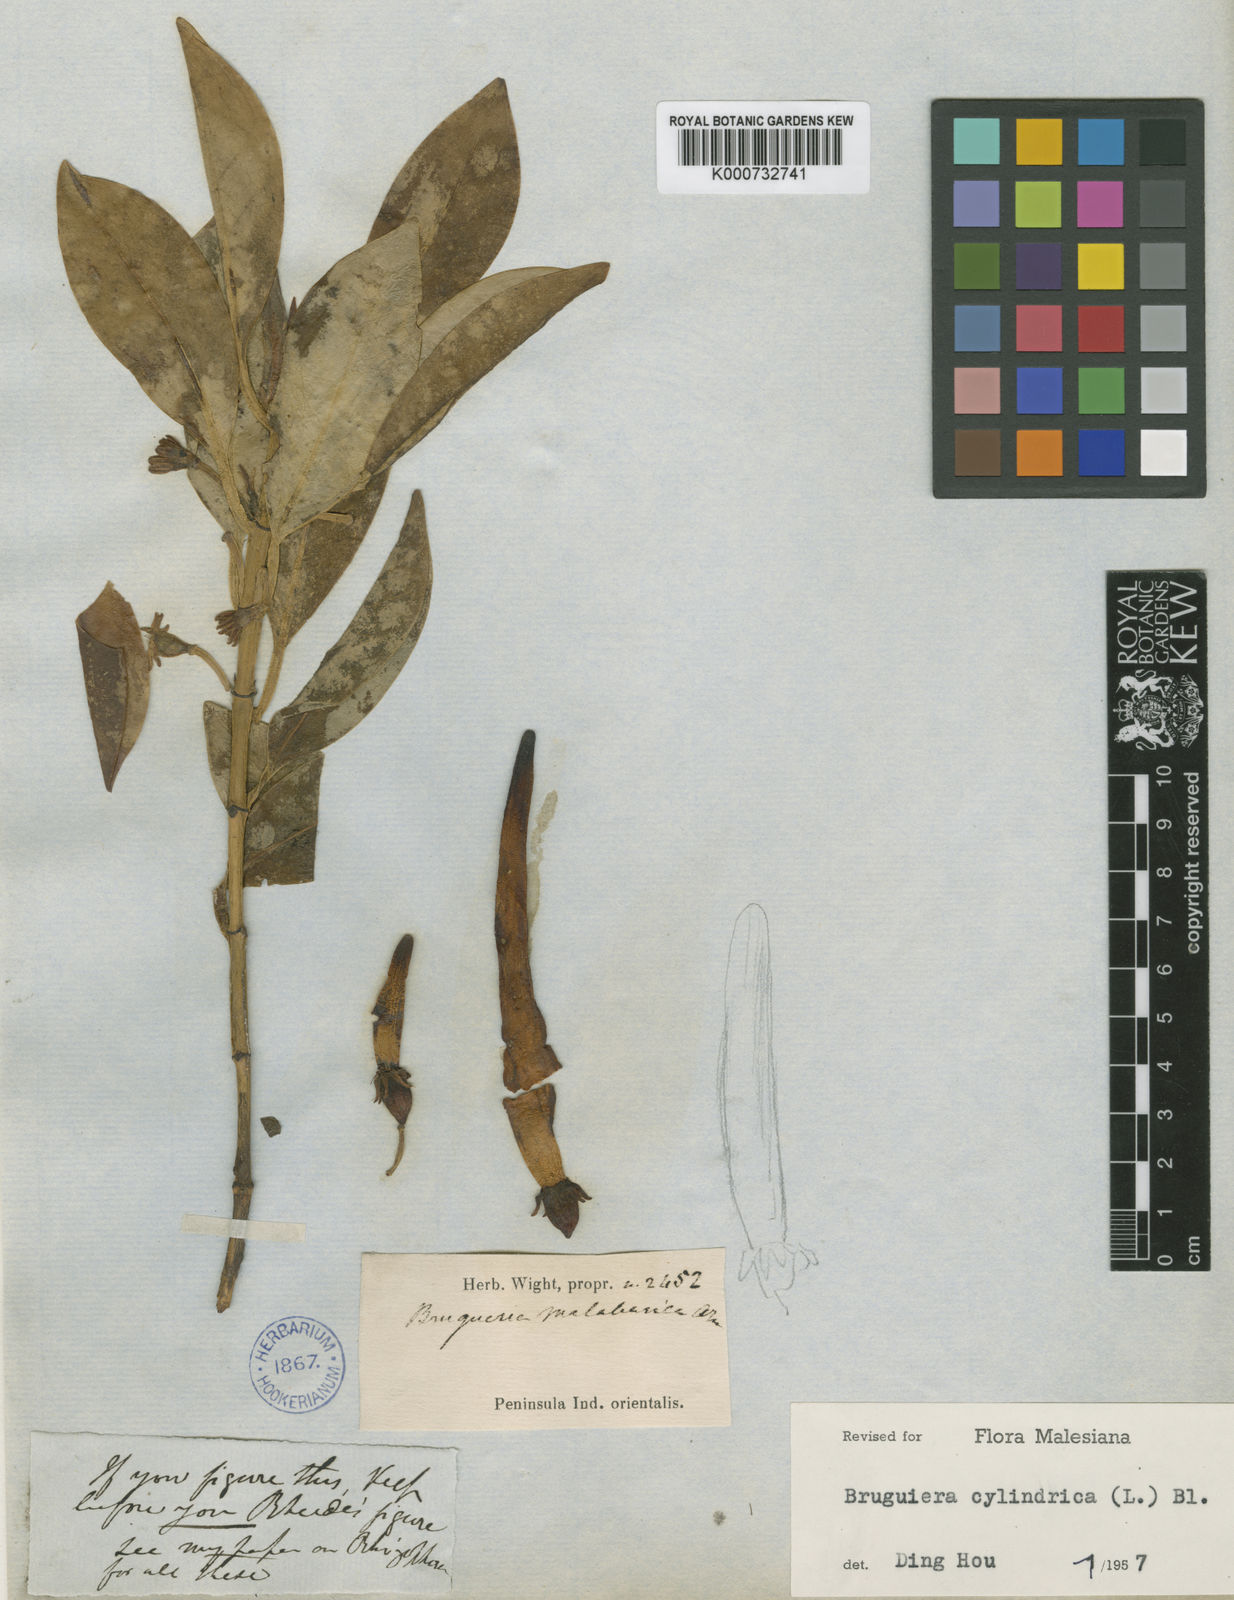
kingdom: Plantae
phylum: Tracheophyta
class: Magnoliopsida
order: Malpighiales
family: Rhizophoraceae
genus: Bruguiera
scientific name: Bruguiera cylindrica
